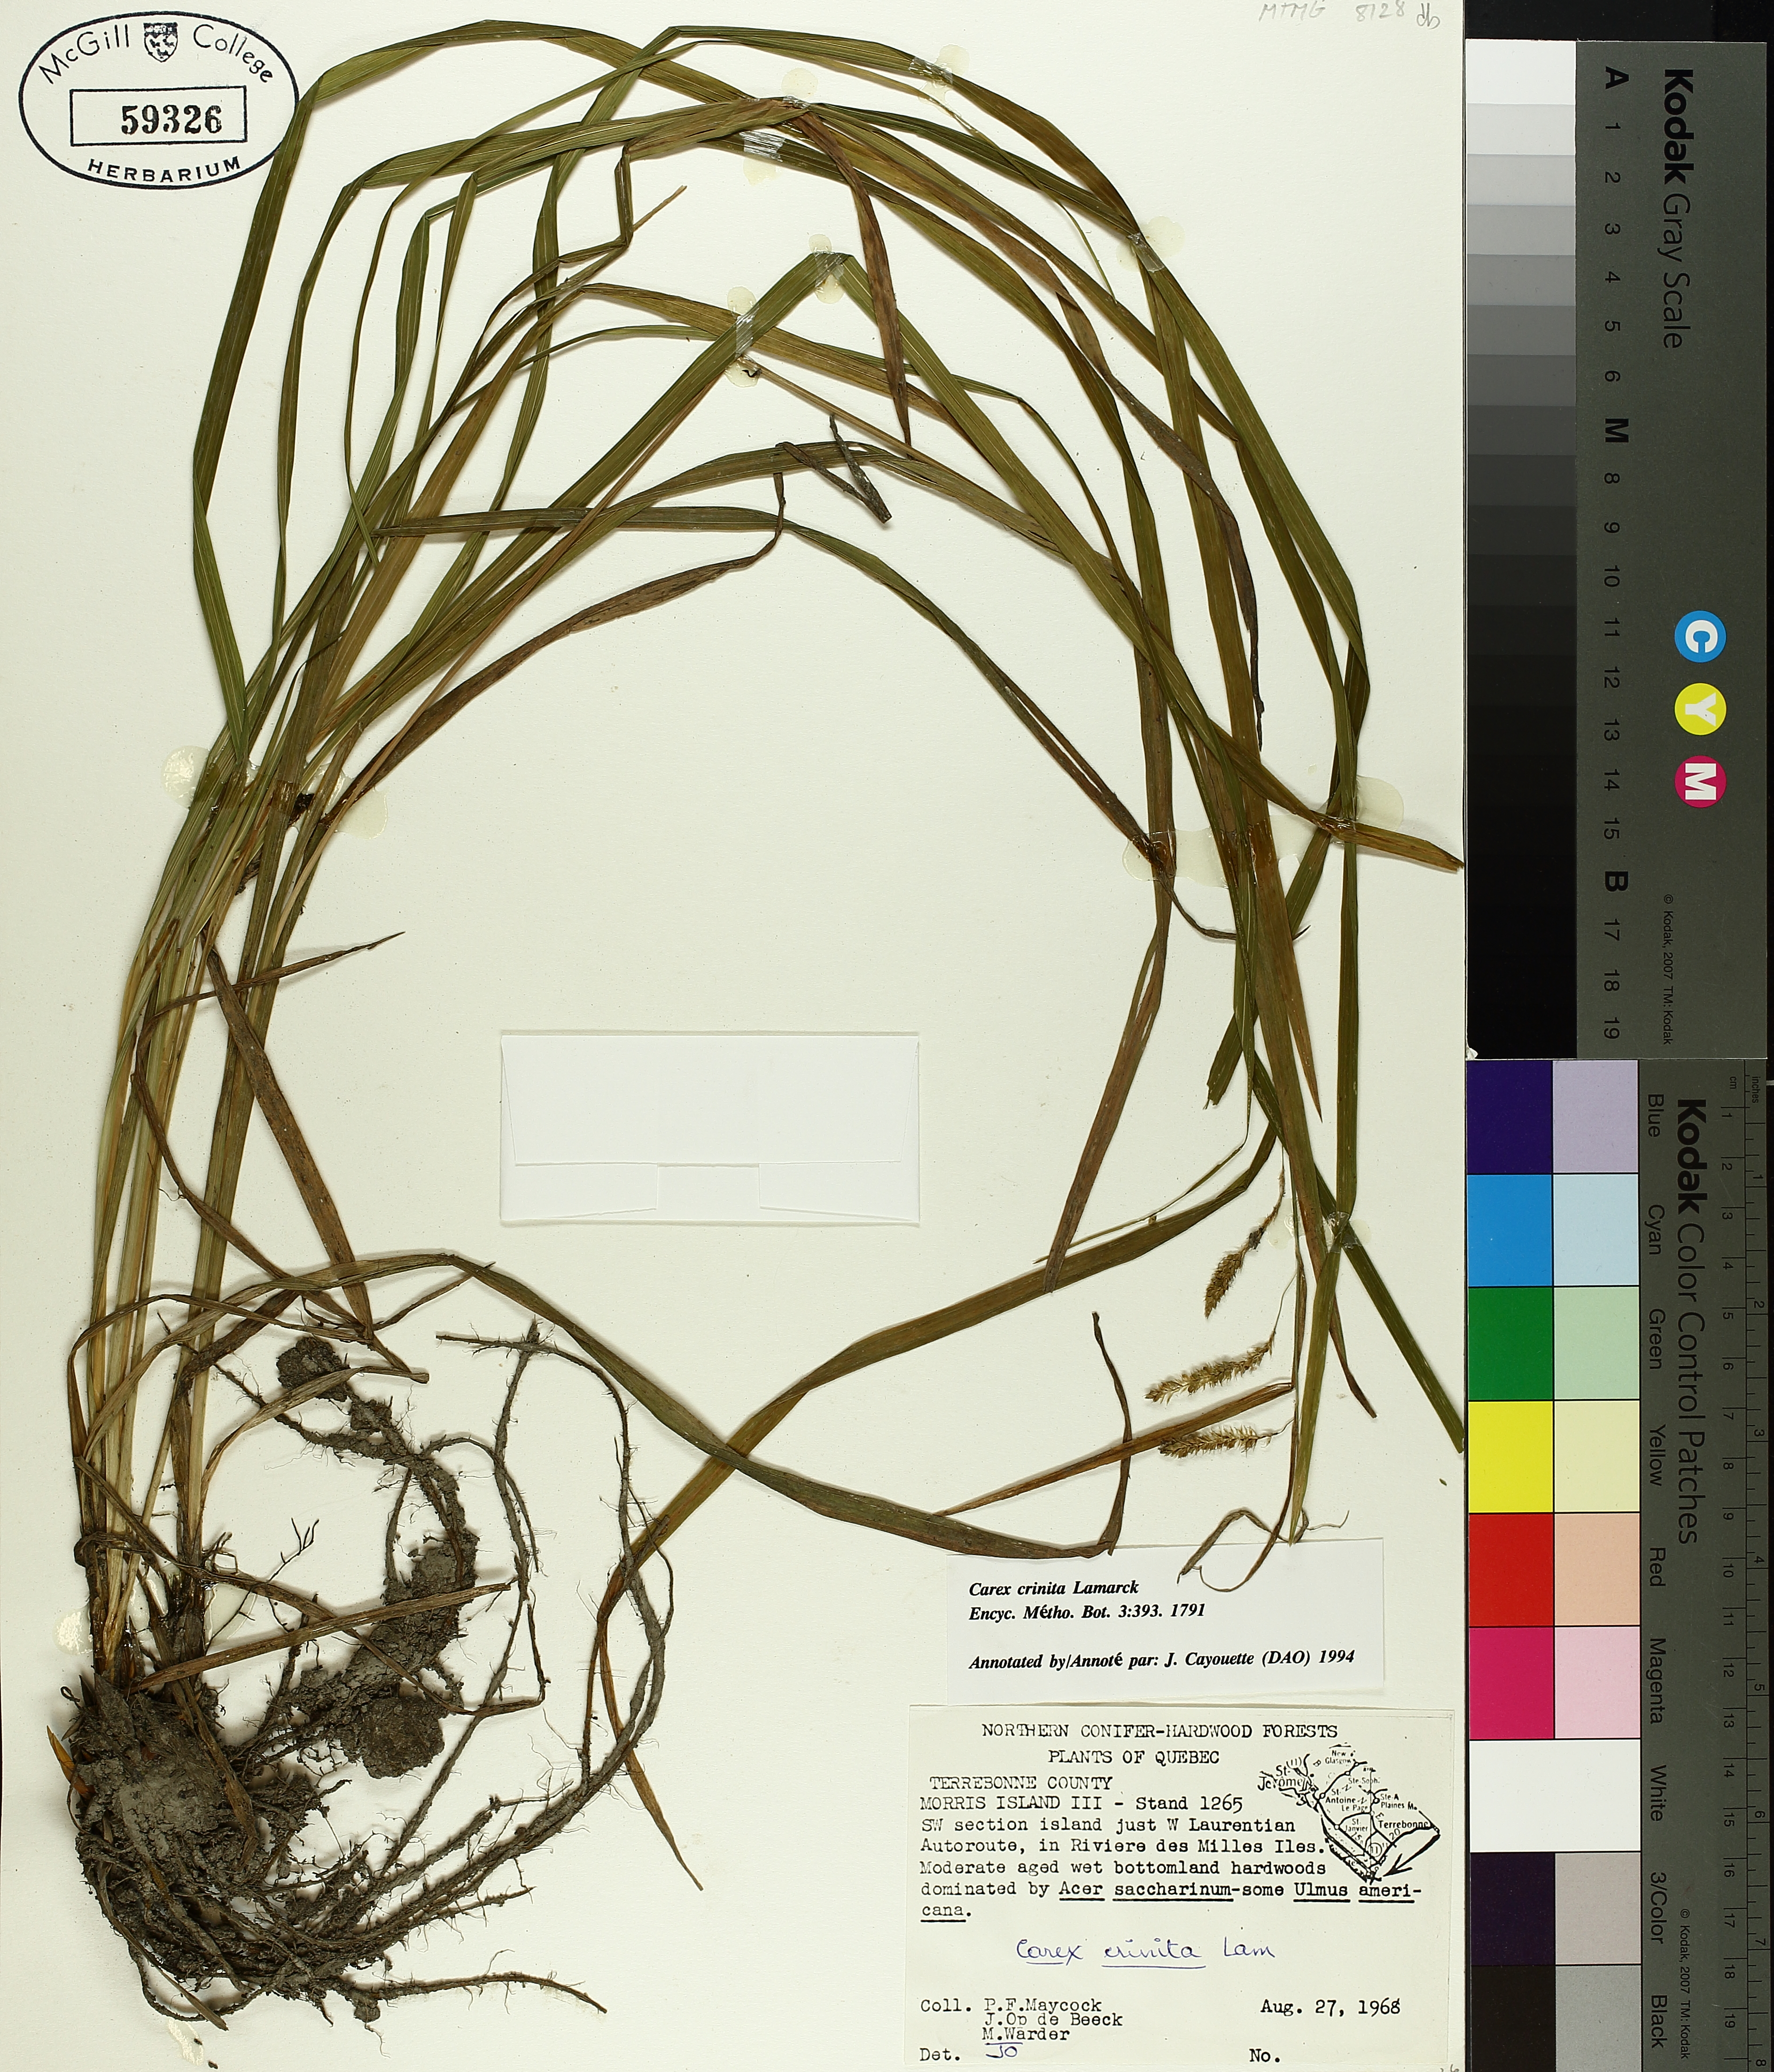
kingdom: Plantae
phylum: Tracheophyta
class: Liliopsida
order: Poales
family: Cyperaceae
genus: Carex
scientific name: Carex crinita
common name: Fringed sedge
